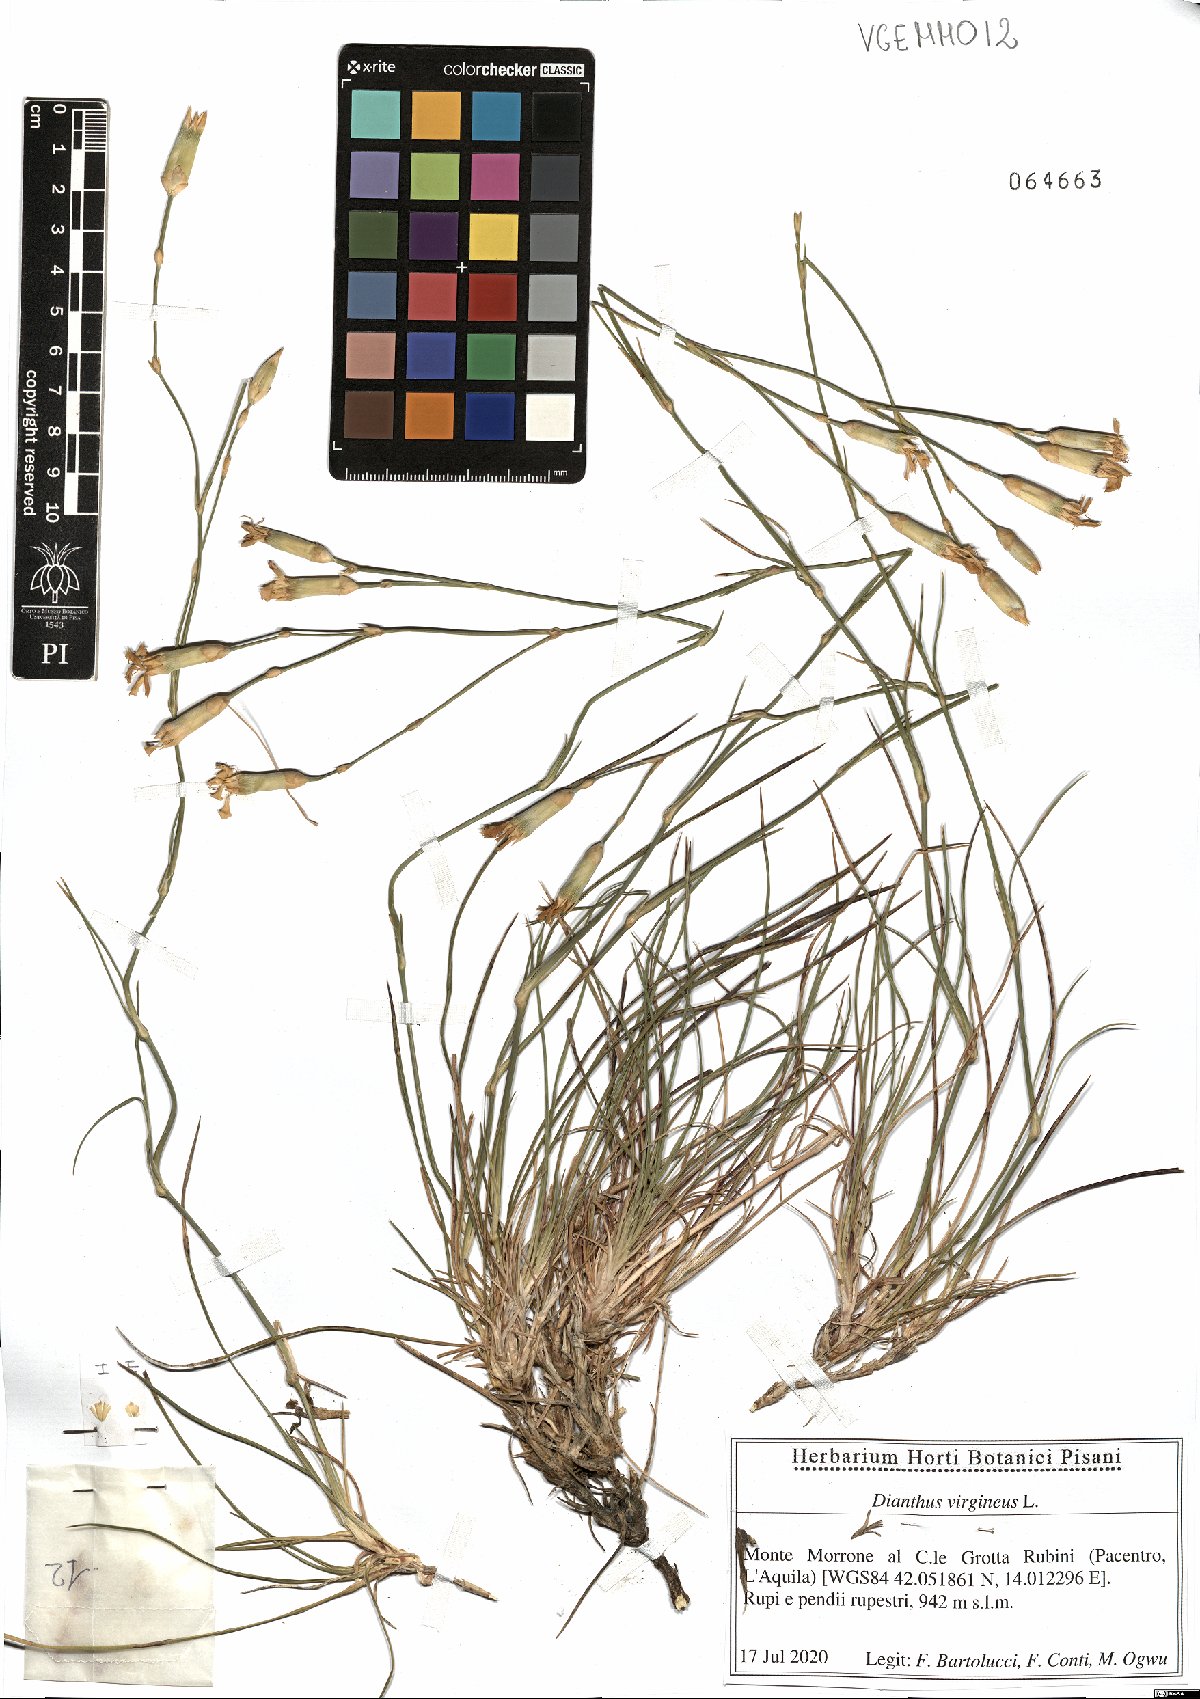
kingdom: Plantae
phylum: Tracheophyta
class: Magnoliopsida
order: Caryophyllales
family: Caryophyllaceae
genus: Dianthus
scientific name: Dianthus virgineus
